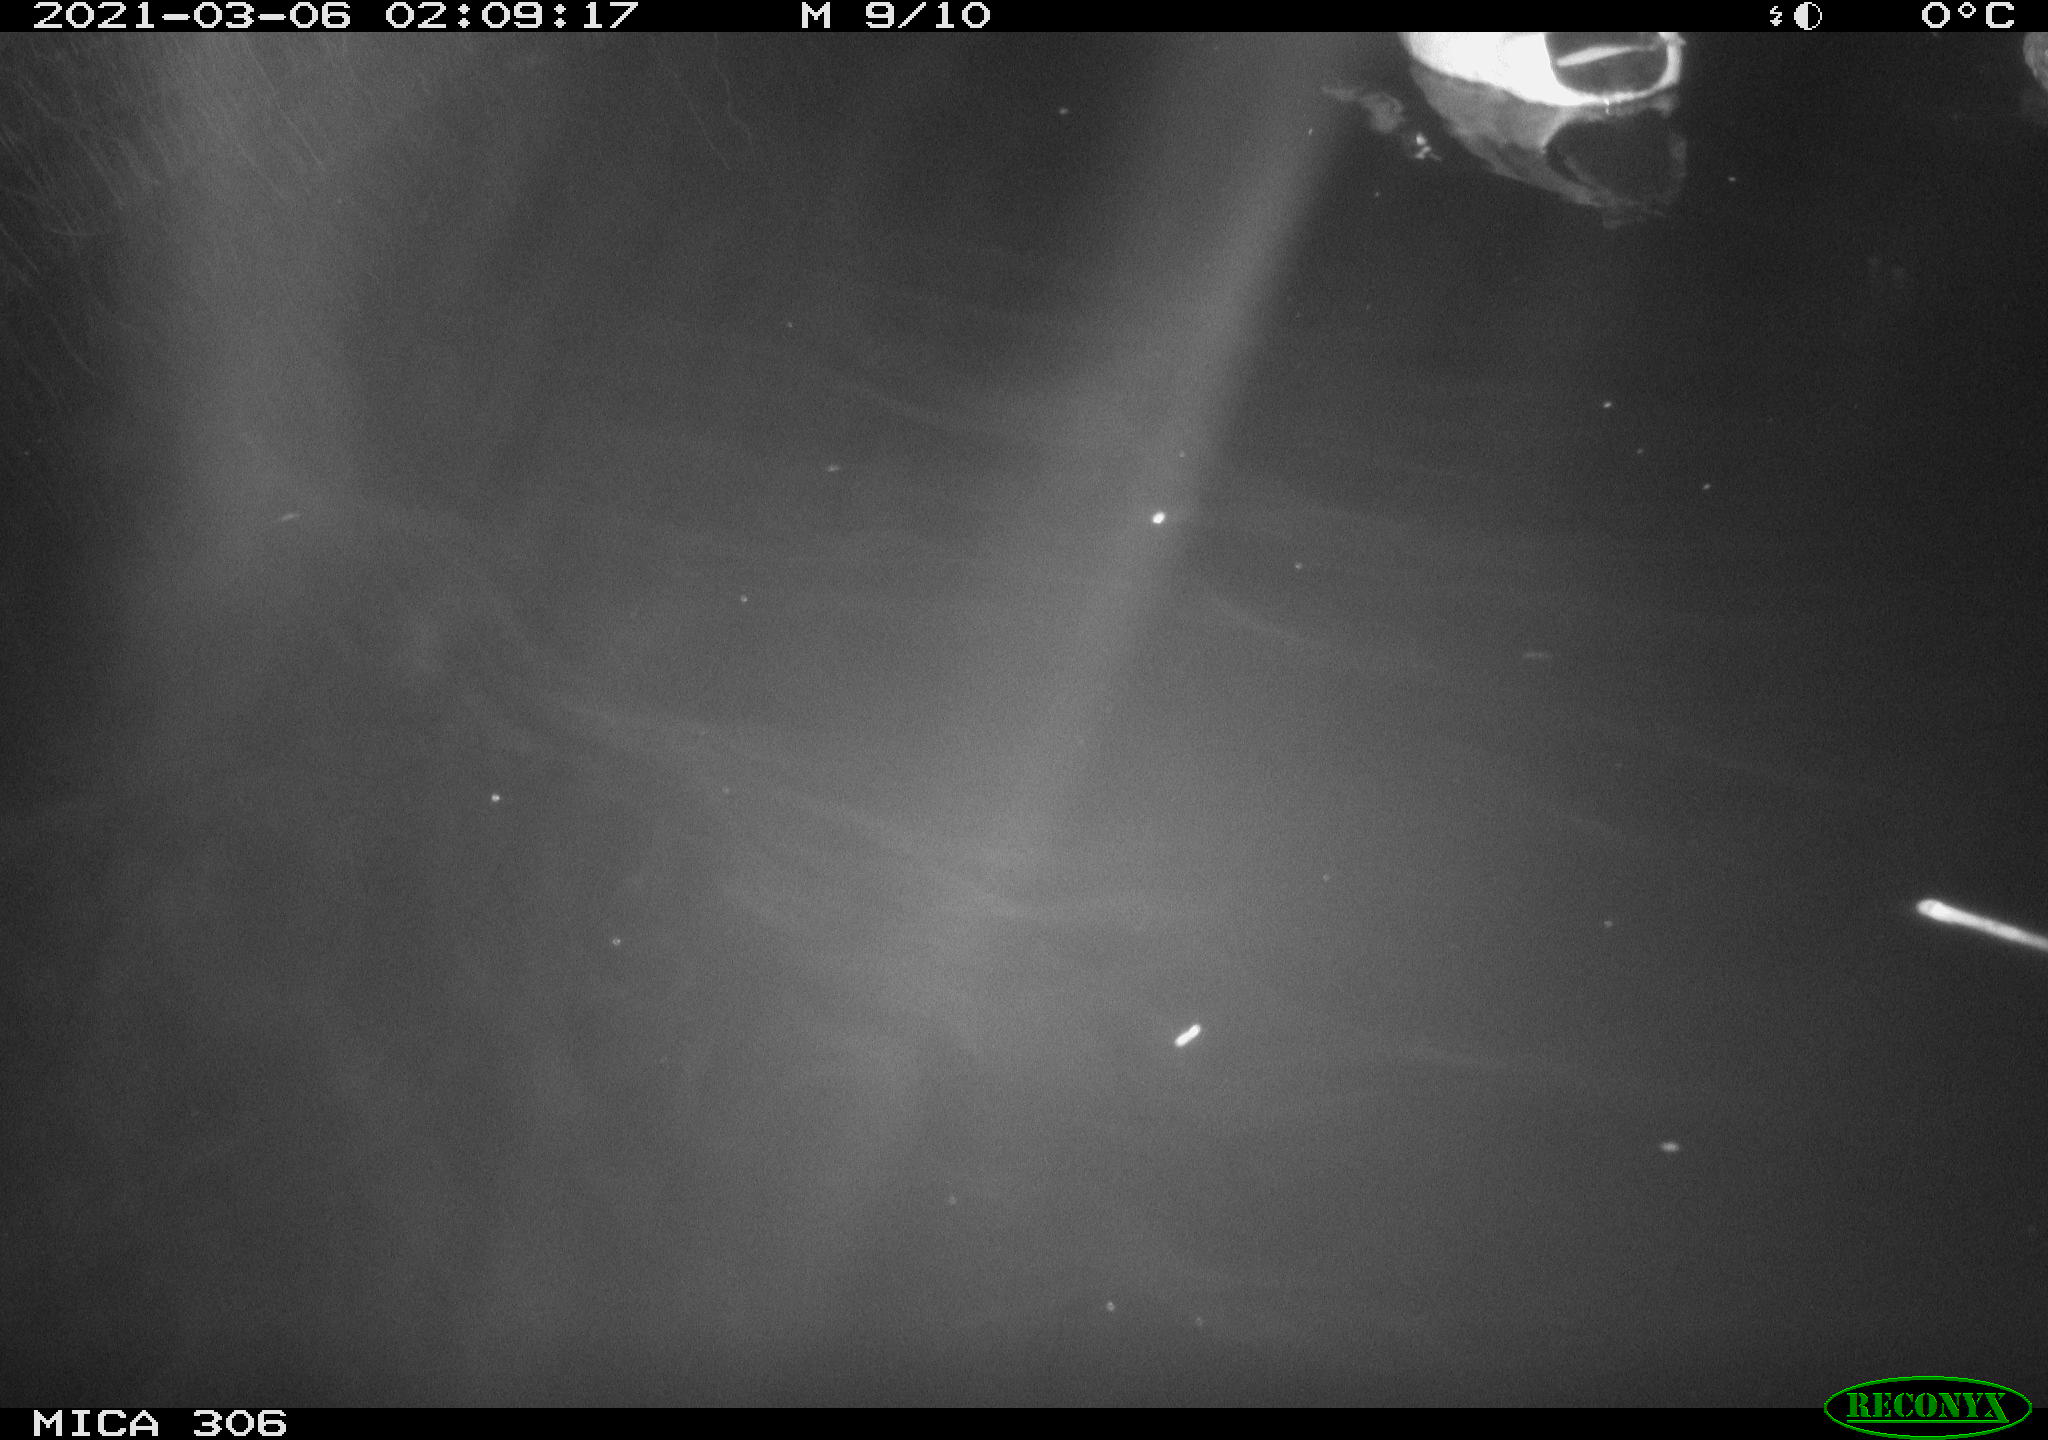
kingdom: Animalia
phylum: Chordata
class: Aves
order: Anseriformes
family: Anatidae
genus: Anas
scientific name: Anas platyrhynchos
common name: Mallard
